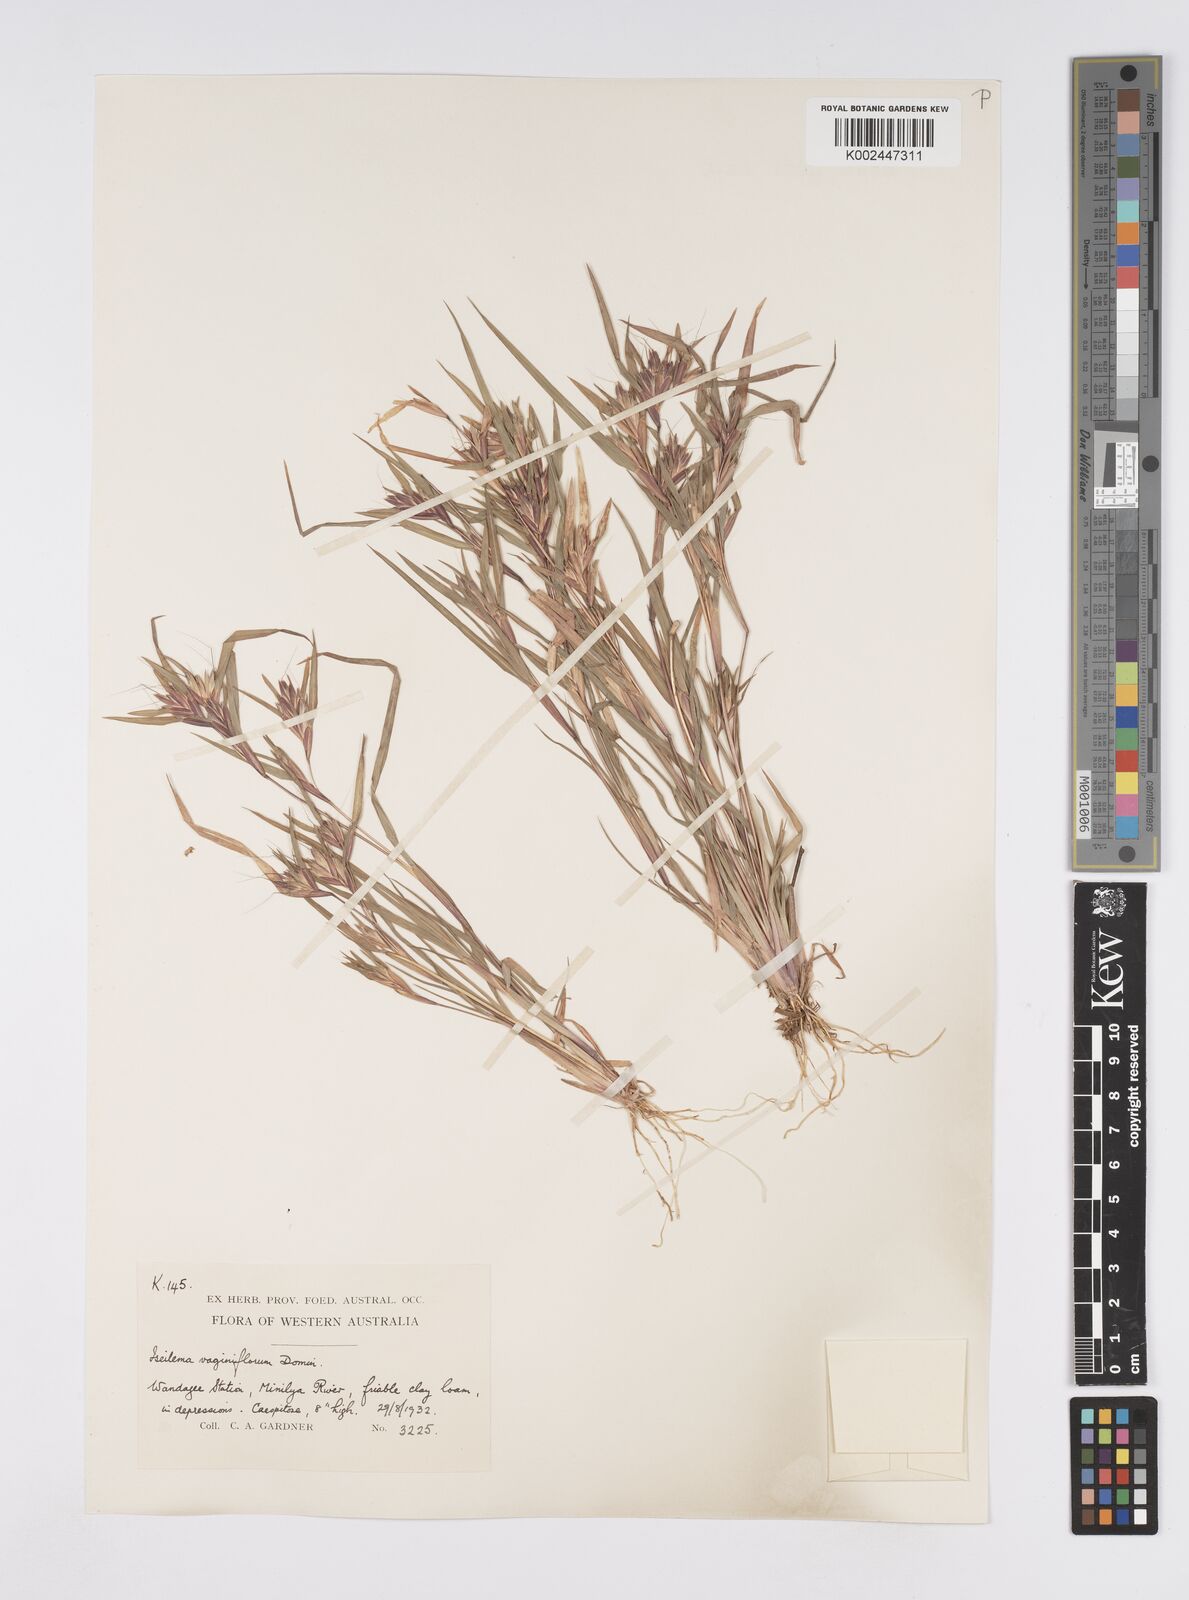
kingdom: Plantae
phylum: Tracheophyta
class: Liliopsida
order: Poales
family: Poaceae
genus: Iseilema
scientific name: Iseilema vaginiflorum
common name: Red flinders grass
